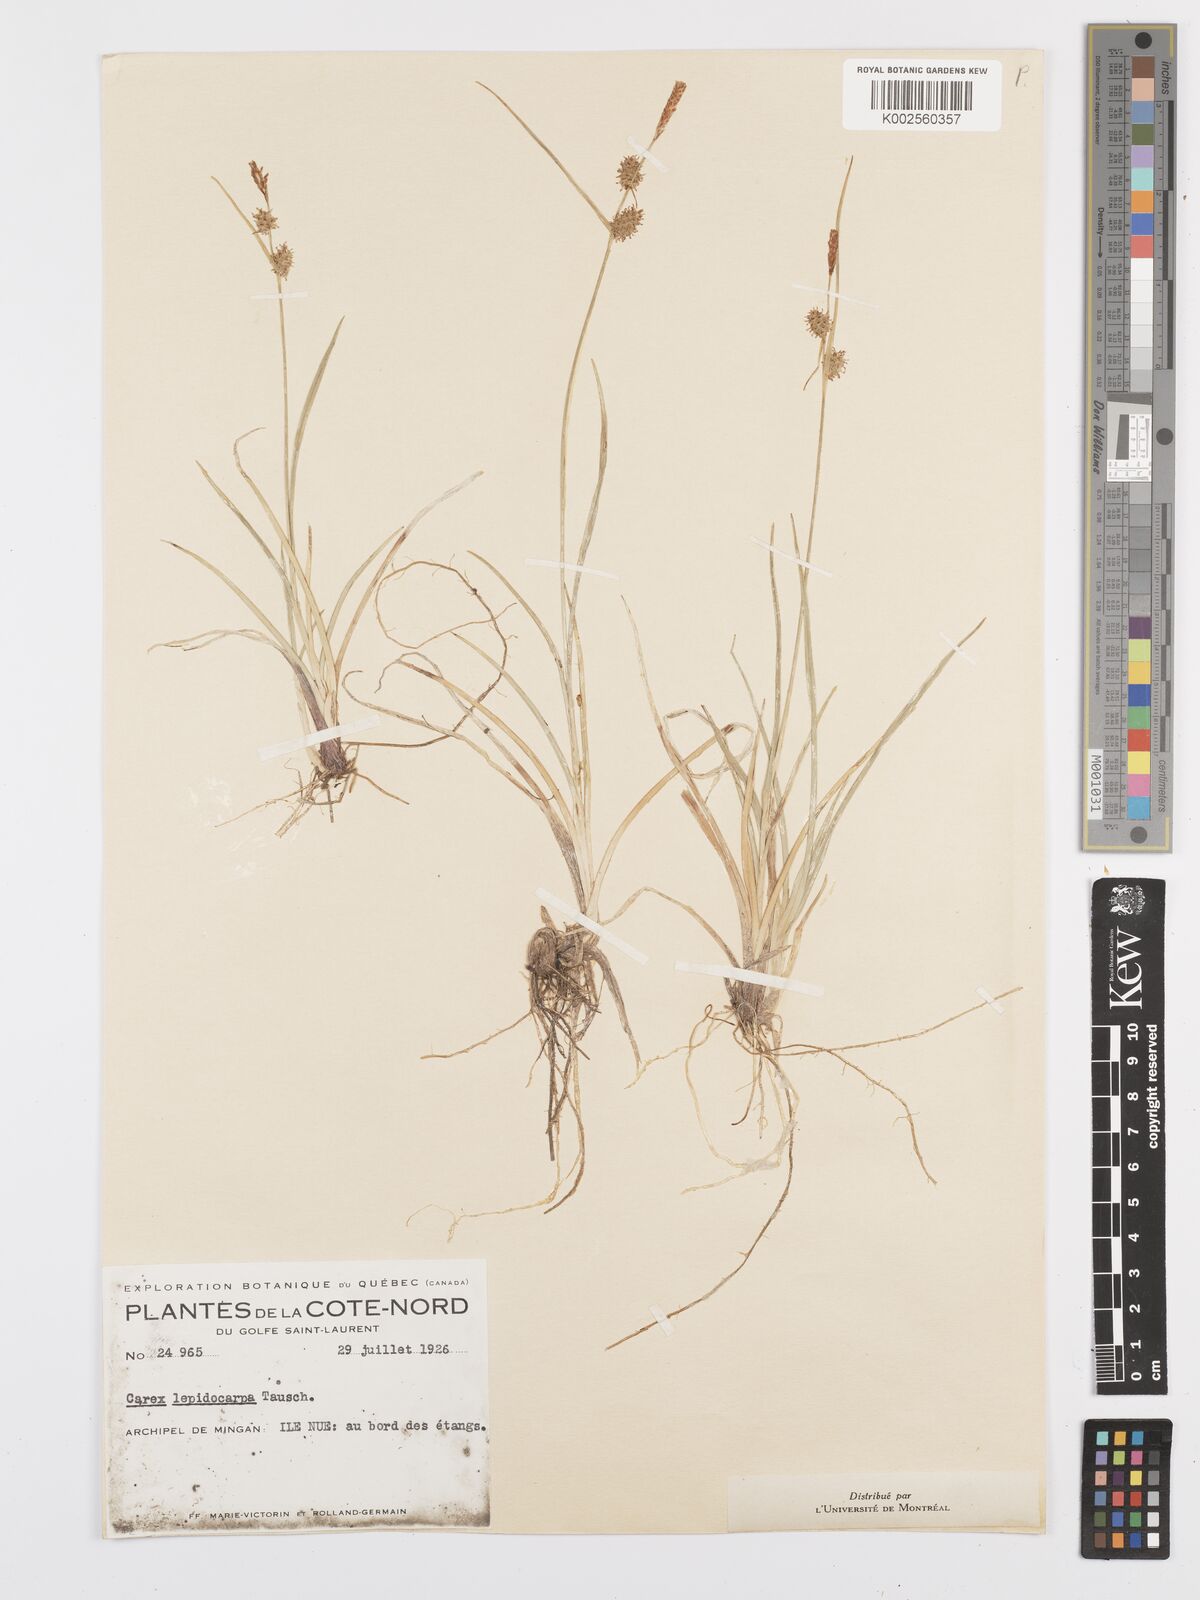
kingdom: Plantae
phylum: Tracheophyta
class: Liliopsida
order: Poales
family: Cyperaceae
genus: Carex
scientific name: Carex lepidocarpa
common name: Long-stalked yellow-sedge
